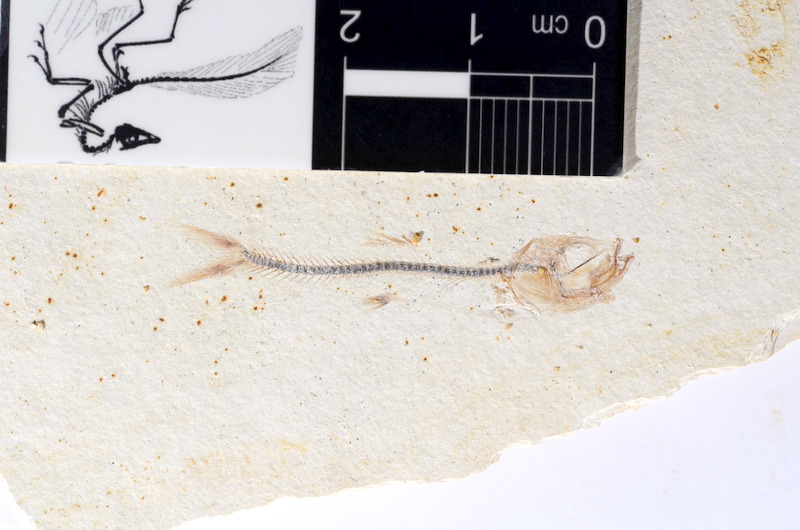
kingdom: Animalia
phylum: Chordata
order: Salmoniformes
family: Orthogonikleithridae
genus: Orthogonikleithrus
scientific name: Orthogonikleithrus hoelli
